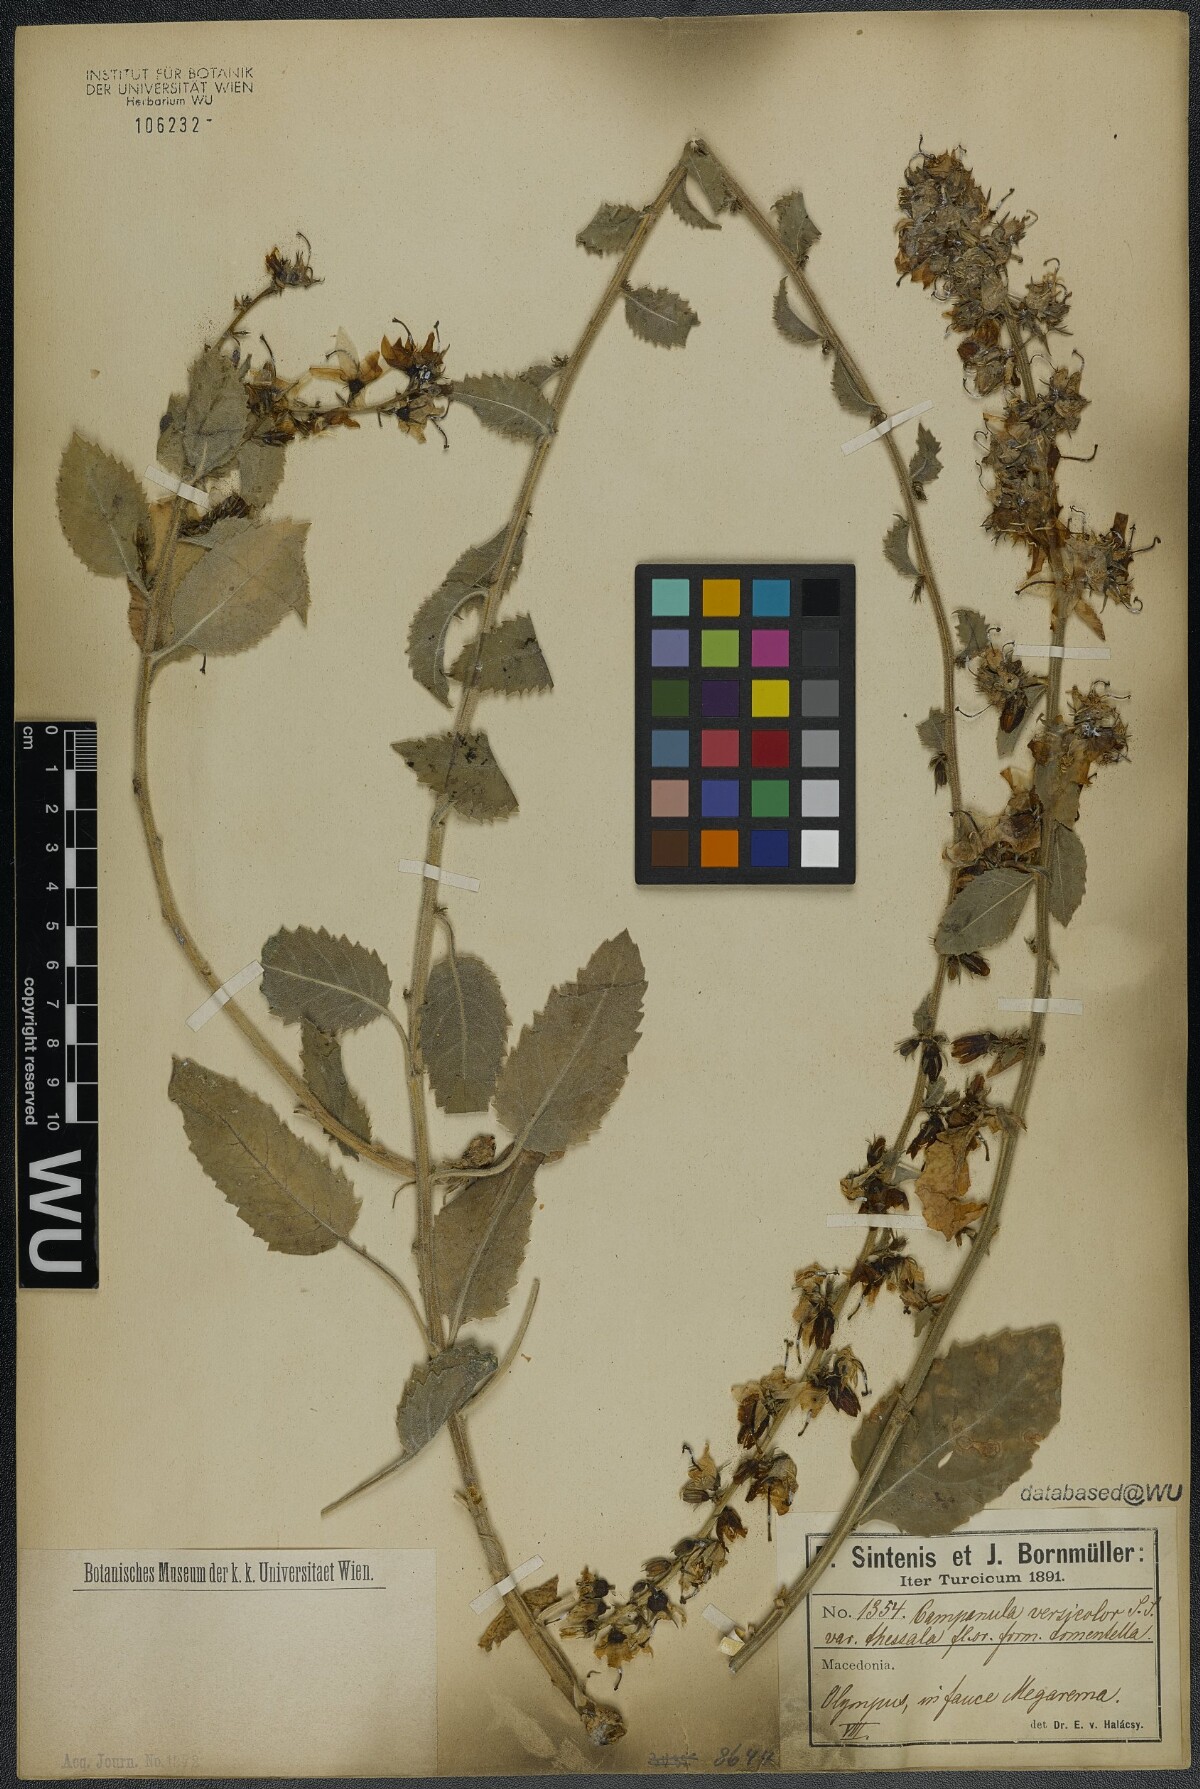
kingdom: Plantae
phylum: Tracheophyta
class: Magnoliopsida
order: Asterales
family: Campanulaceae
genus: Campanula
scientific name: Campanula versicolor
